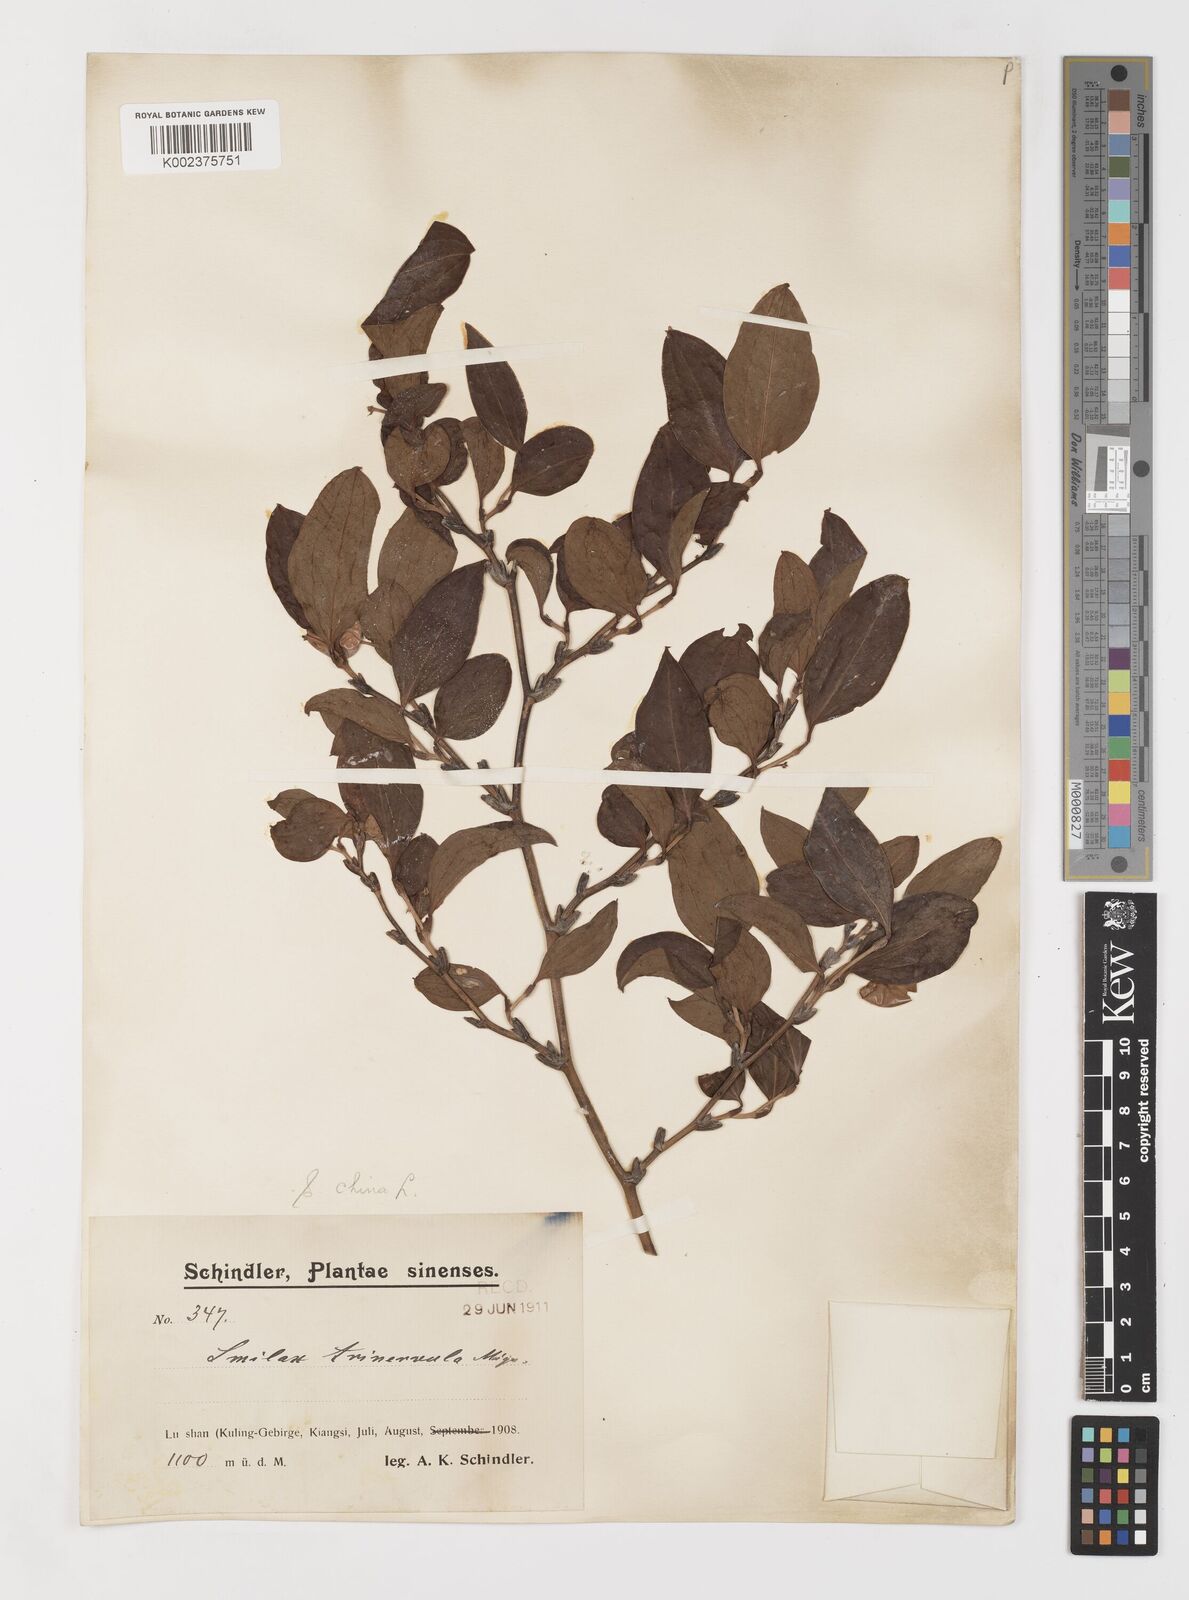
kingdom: Plantae
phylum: Tracheophyta
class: Liliopsida
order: Liliales
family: Smilacaceae
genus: Smilax
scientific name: Smilax china
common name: Chinaroot
